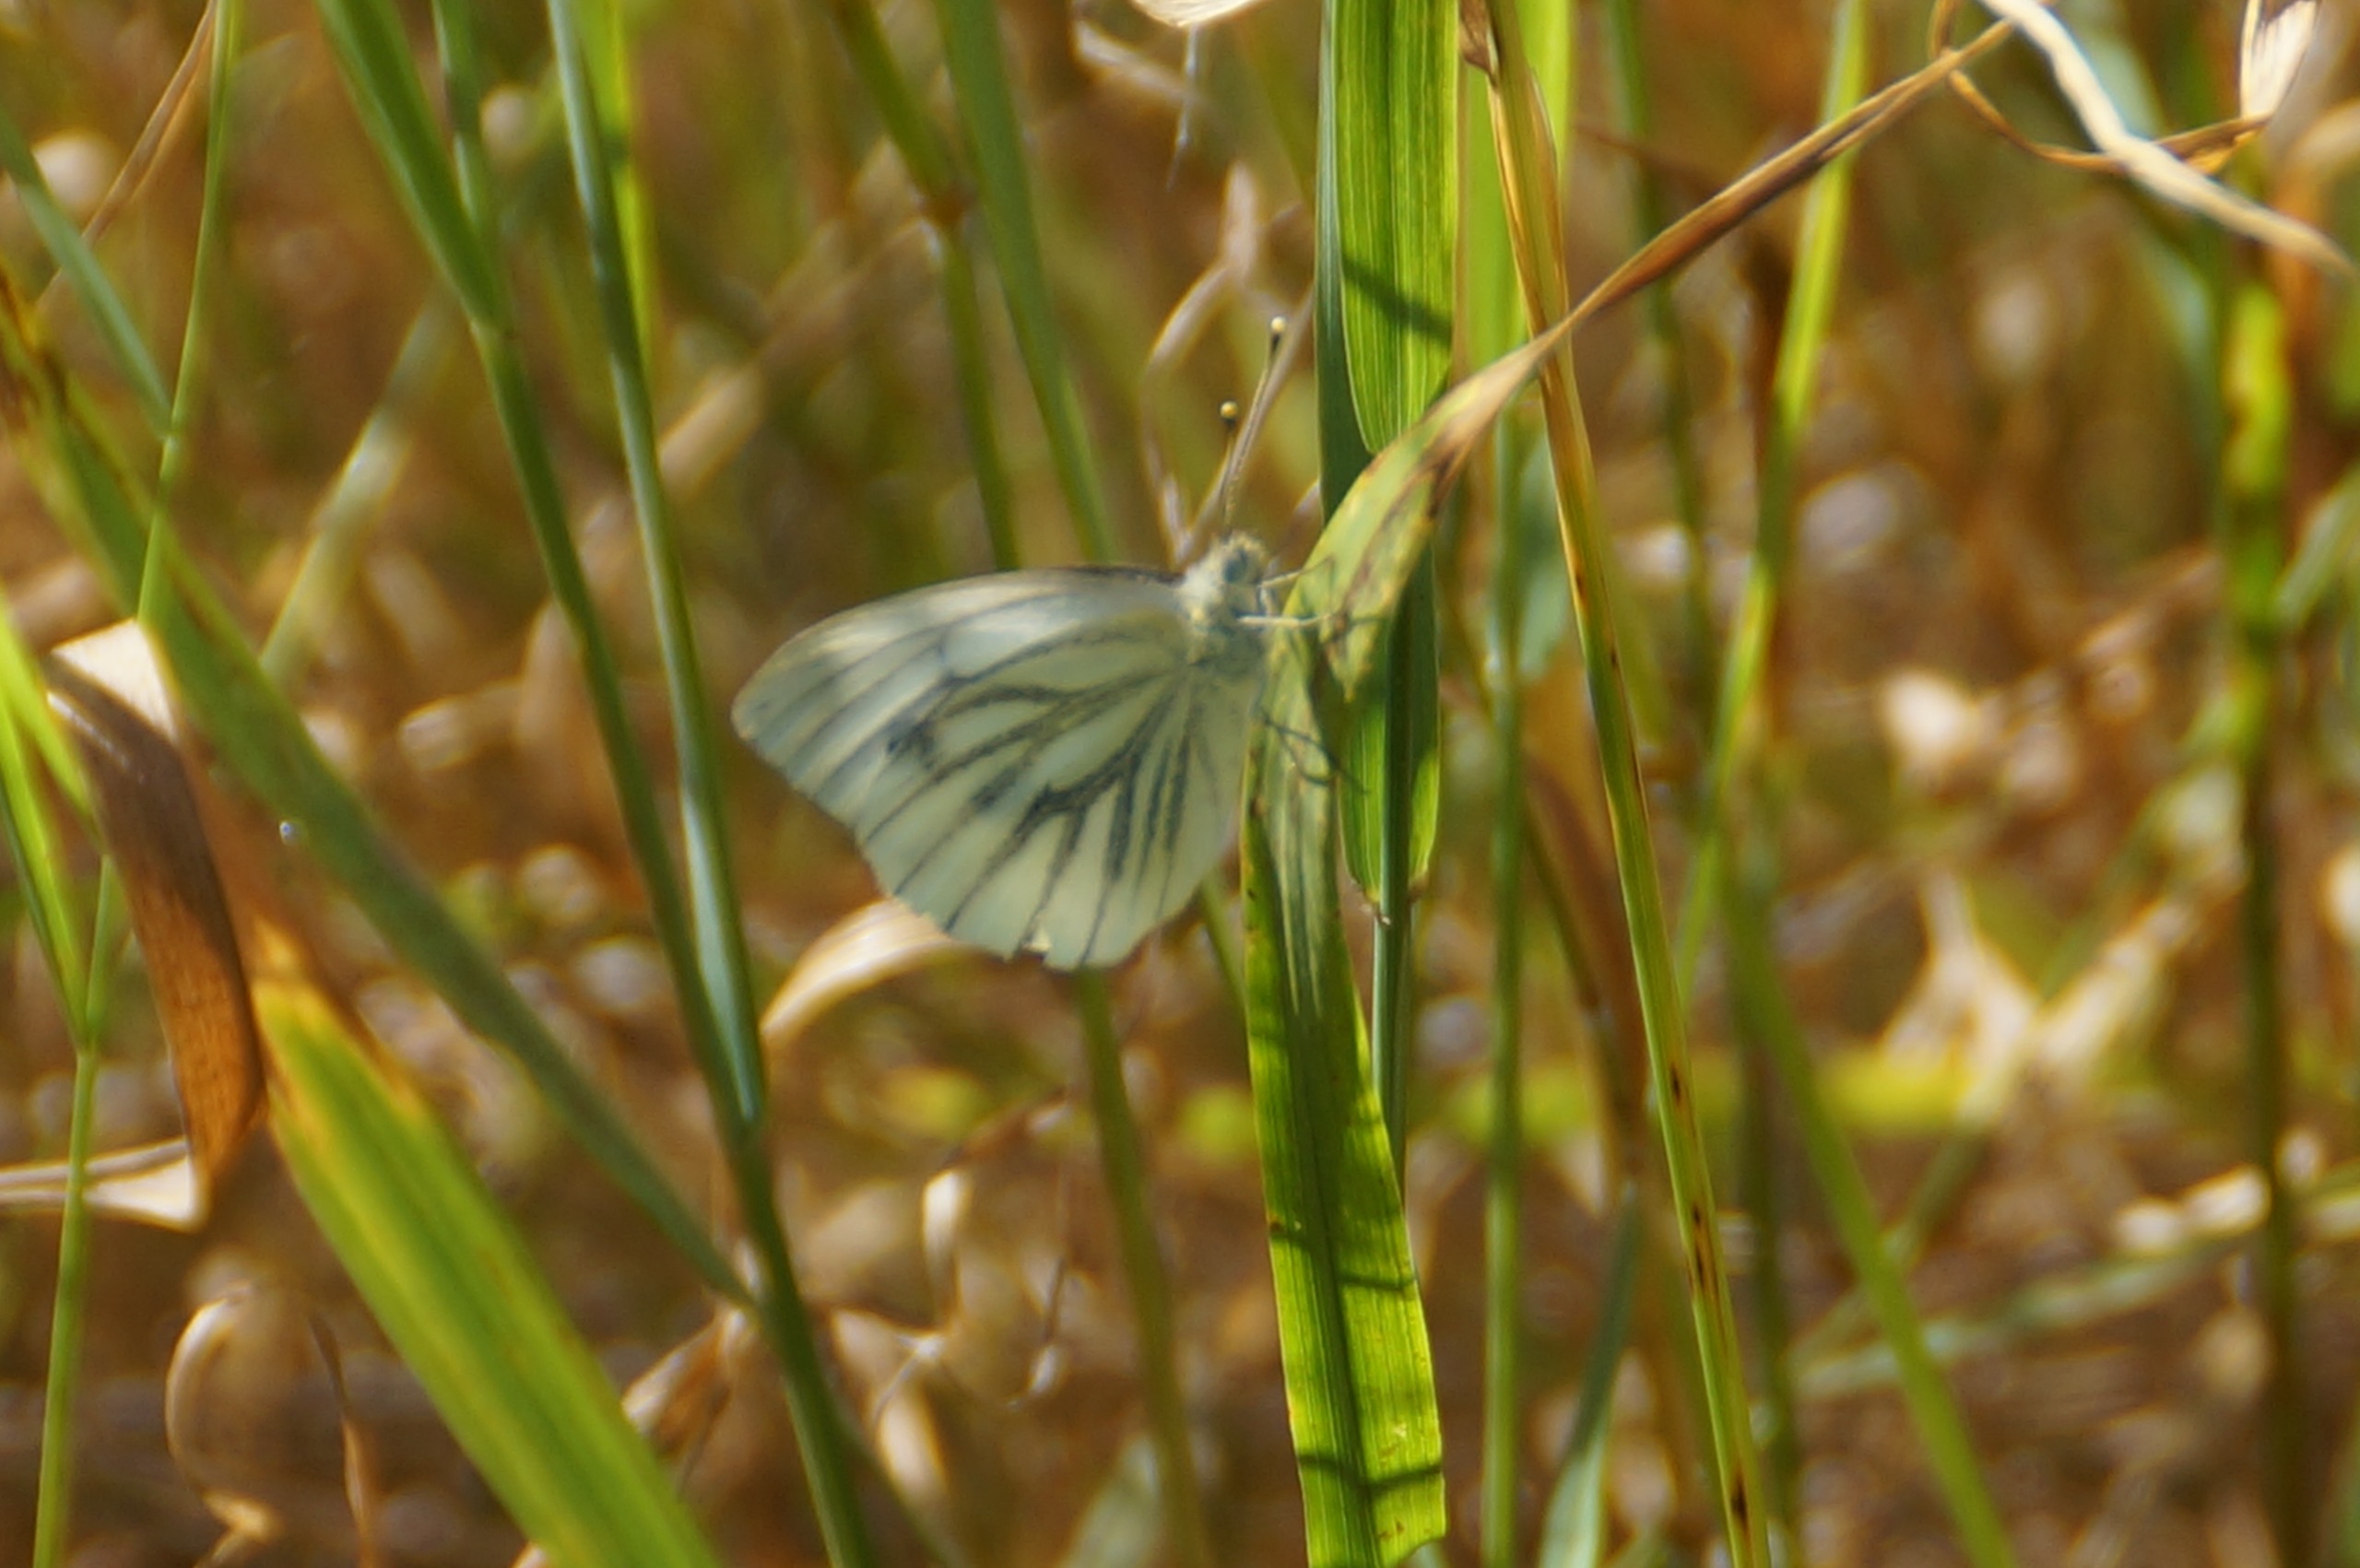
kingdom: Animalia
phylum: Arthropoda
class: Insecta
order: Lepidoptera
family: Pieridae
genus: Pieris
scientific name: Pieris napi
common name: Grønåret kålsommerfugl
